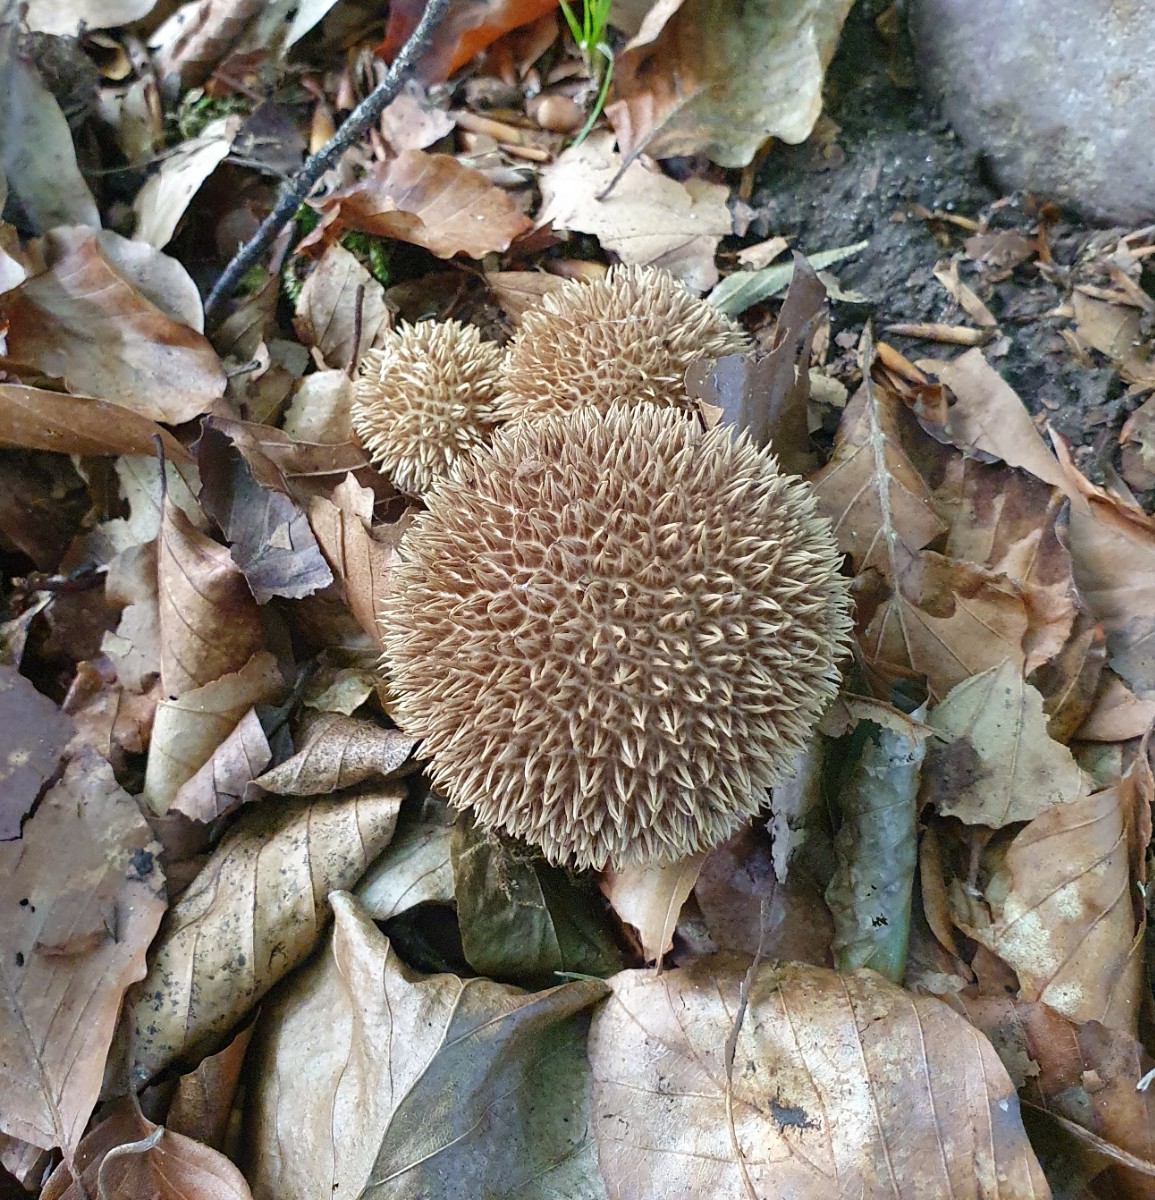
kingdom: Fungi
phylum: Basidiomycota
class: Agaricomycetes
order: Agaricales
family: Lycoperdaceae
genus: Lycoperdon
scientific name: Lycoperdon echinatum
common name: pindsvine-støvbold
